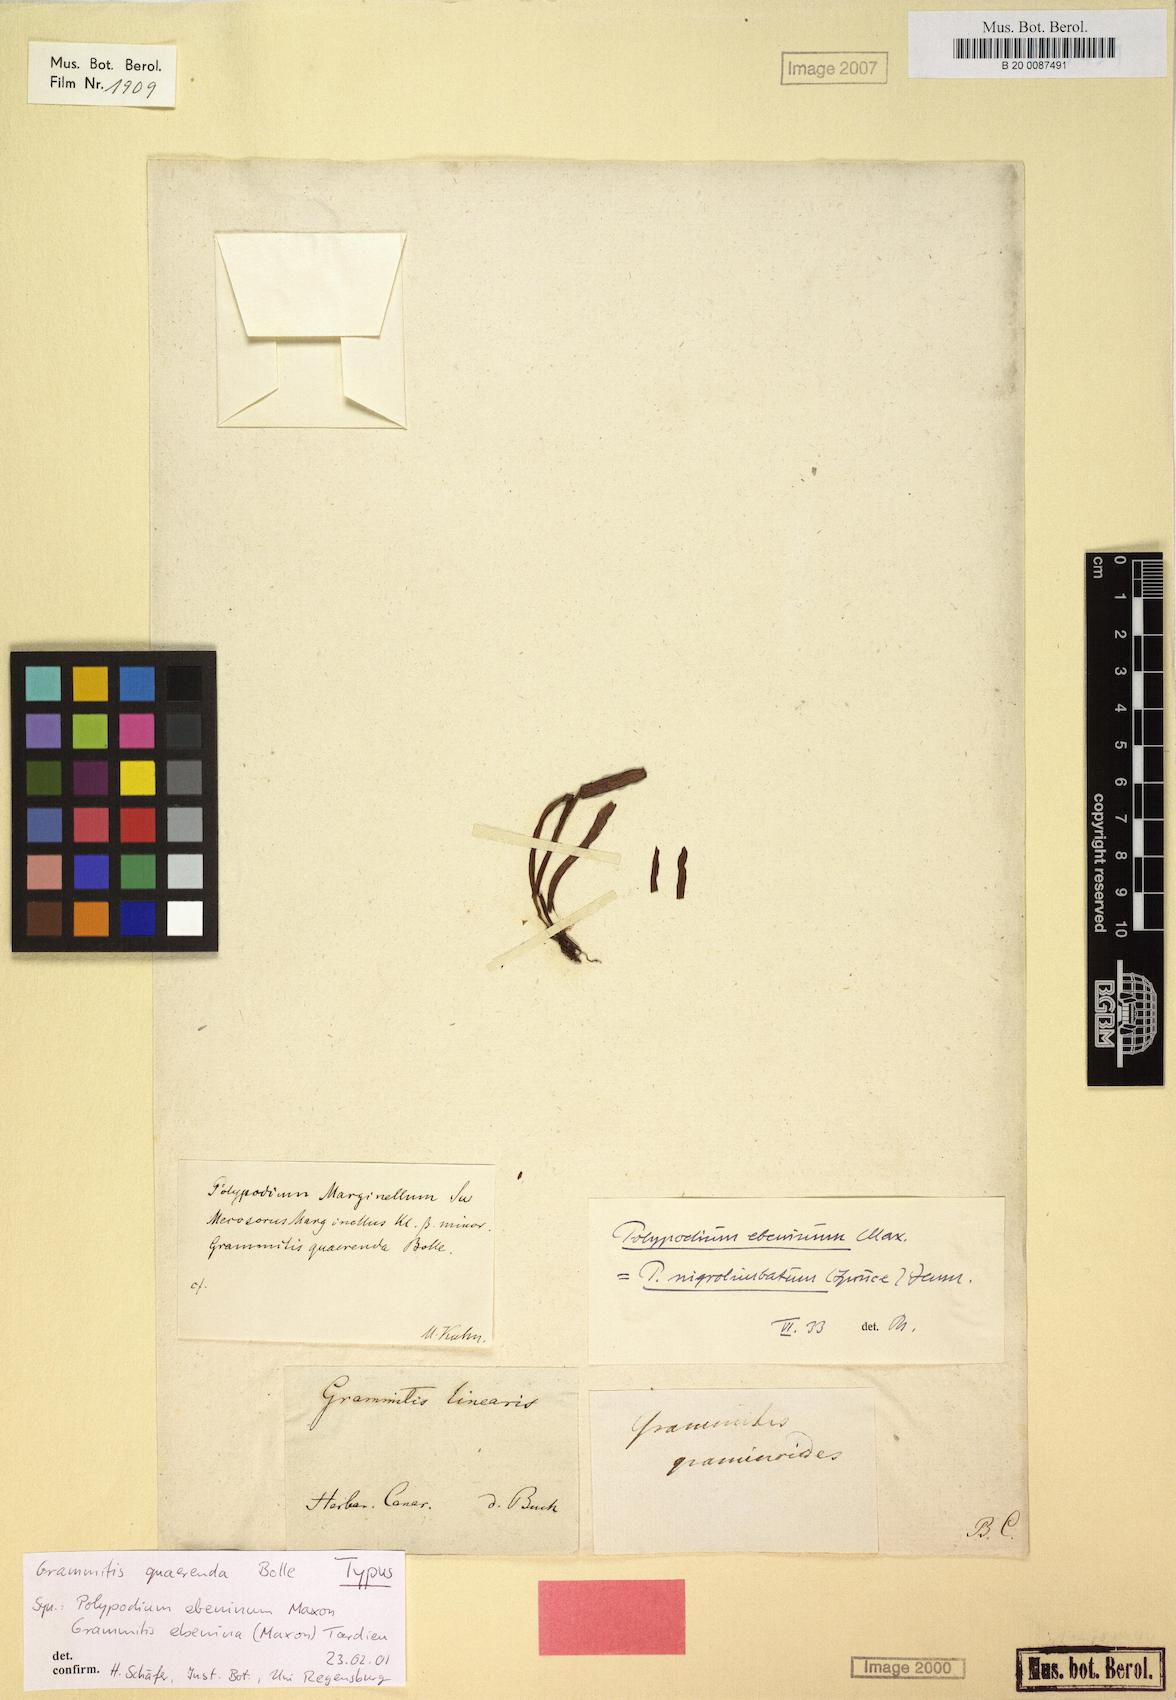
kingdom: Plantae
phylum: Tracheophyta
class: Polypodiopsida
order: Polypodiales
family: Polypodiaceae
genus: Grammitis
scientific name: Grammitis ebenina
